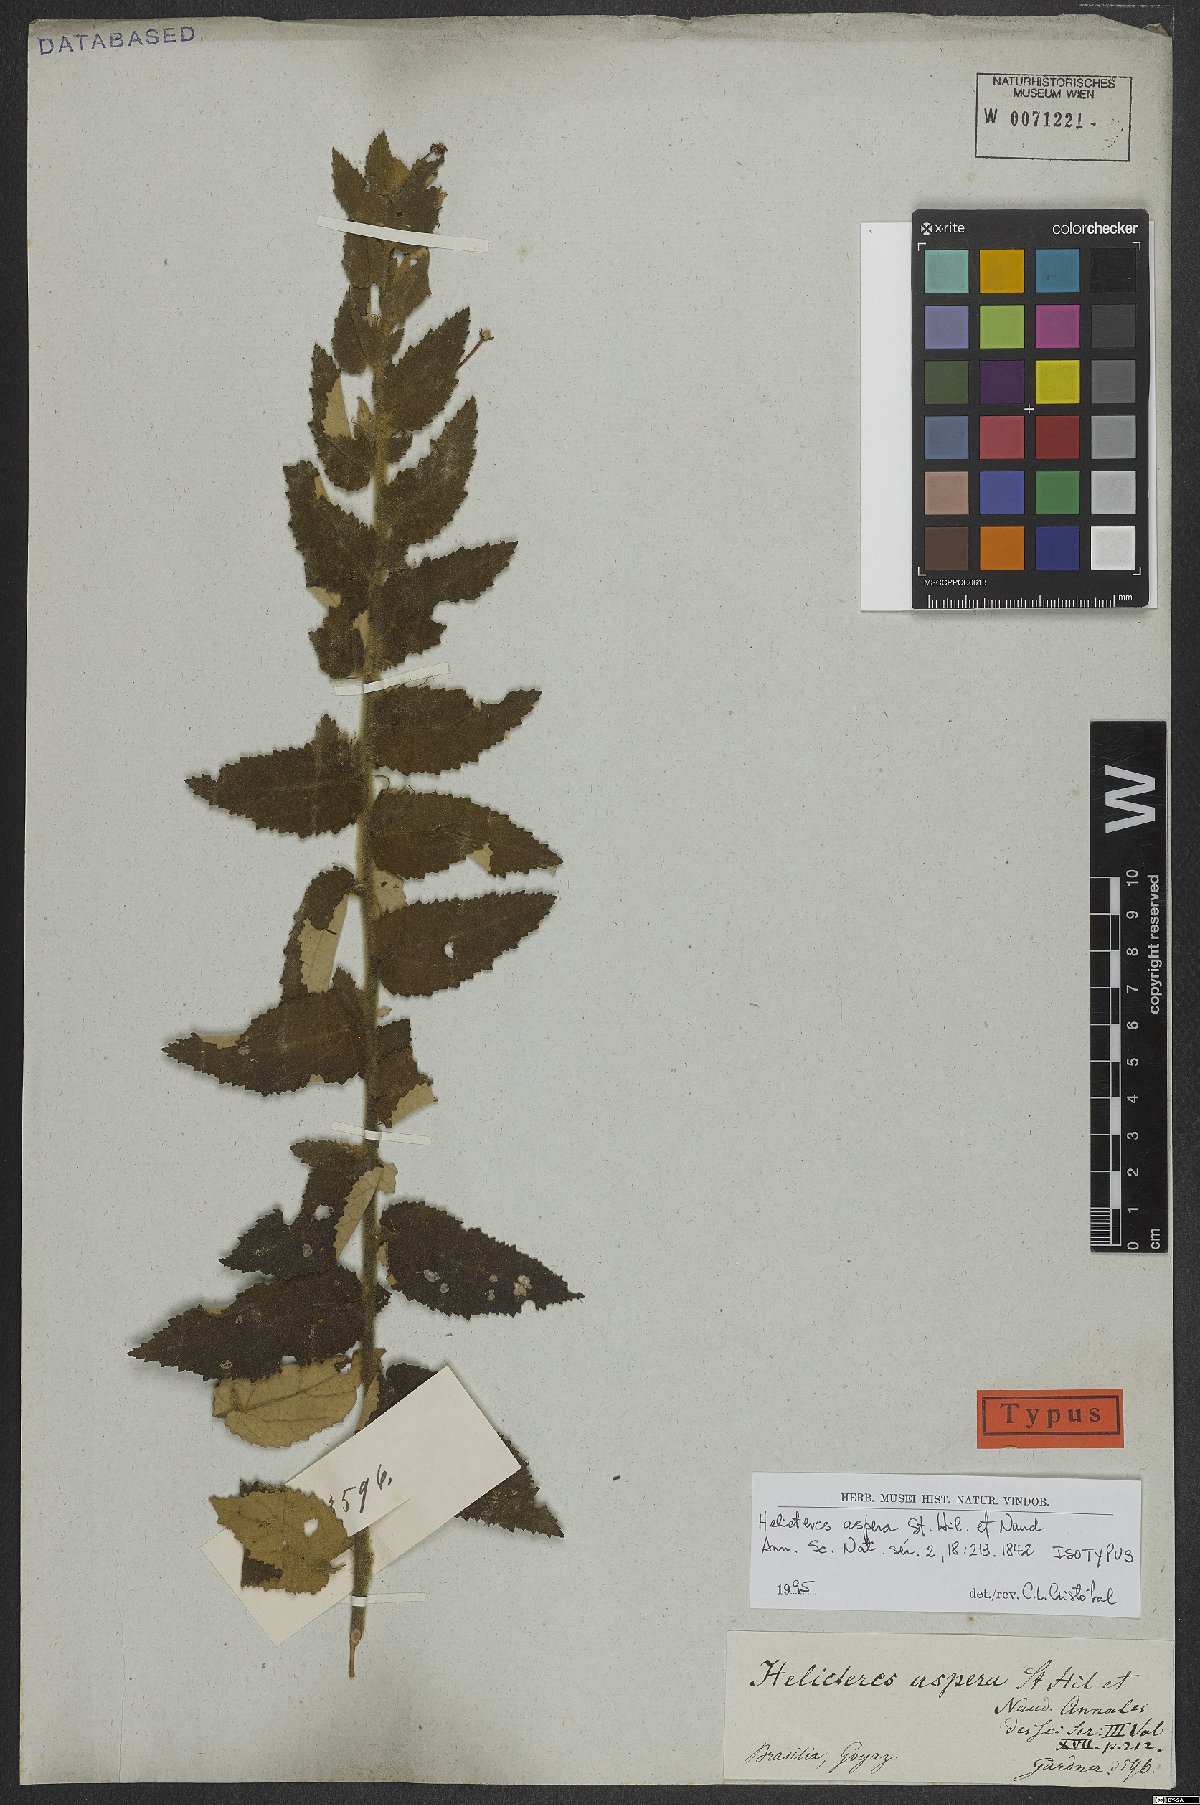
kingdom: Plantae
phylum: Tracheophyta
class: Magnoliopsida
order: Malvales
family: Malvaceae
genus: Helicteres
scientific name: Helicteres aspera
